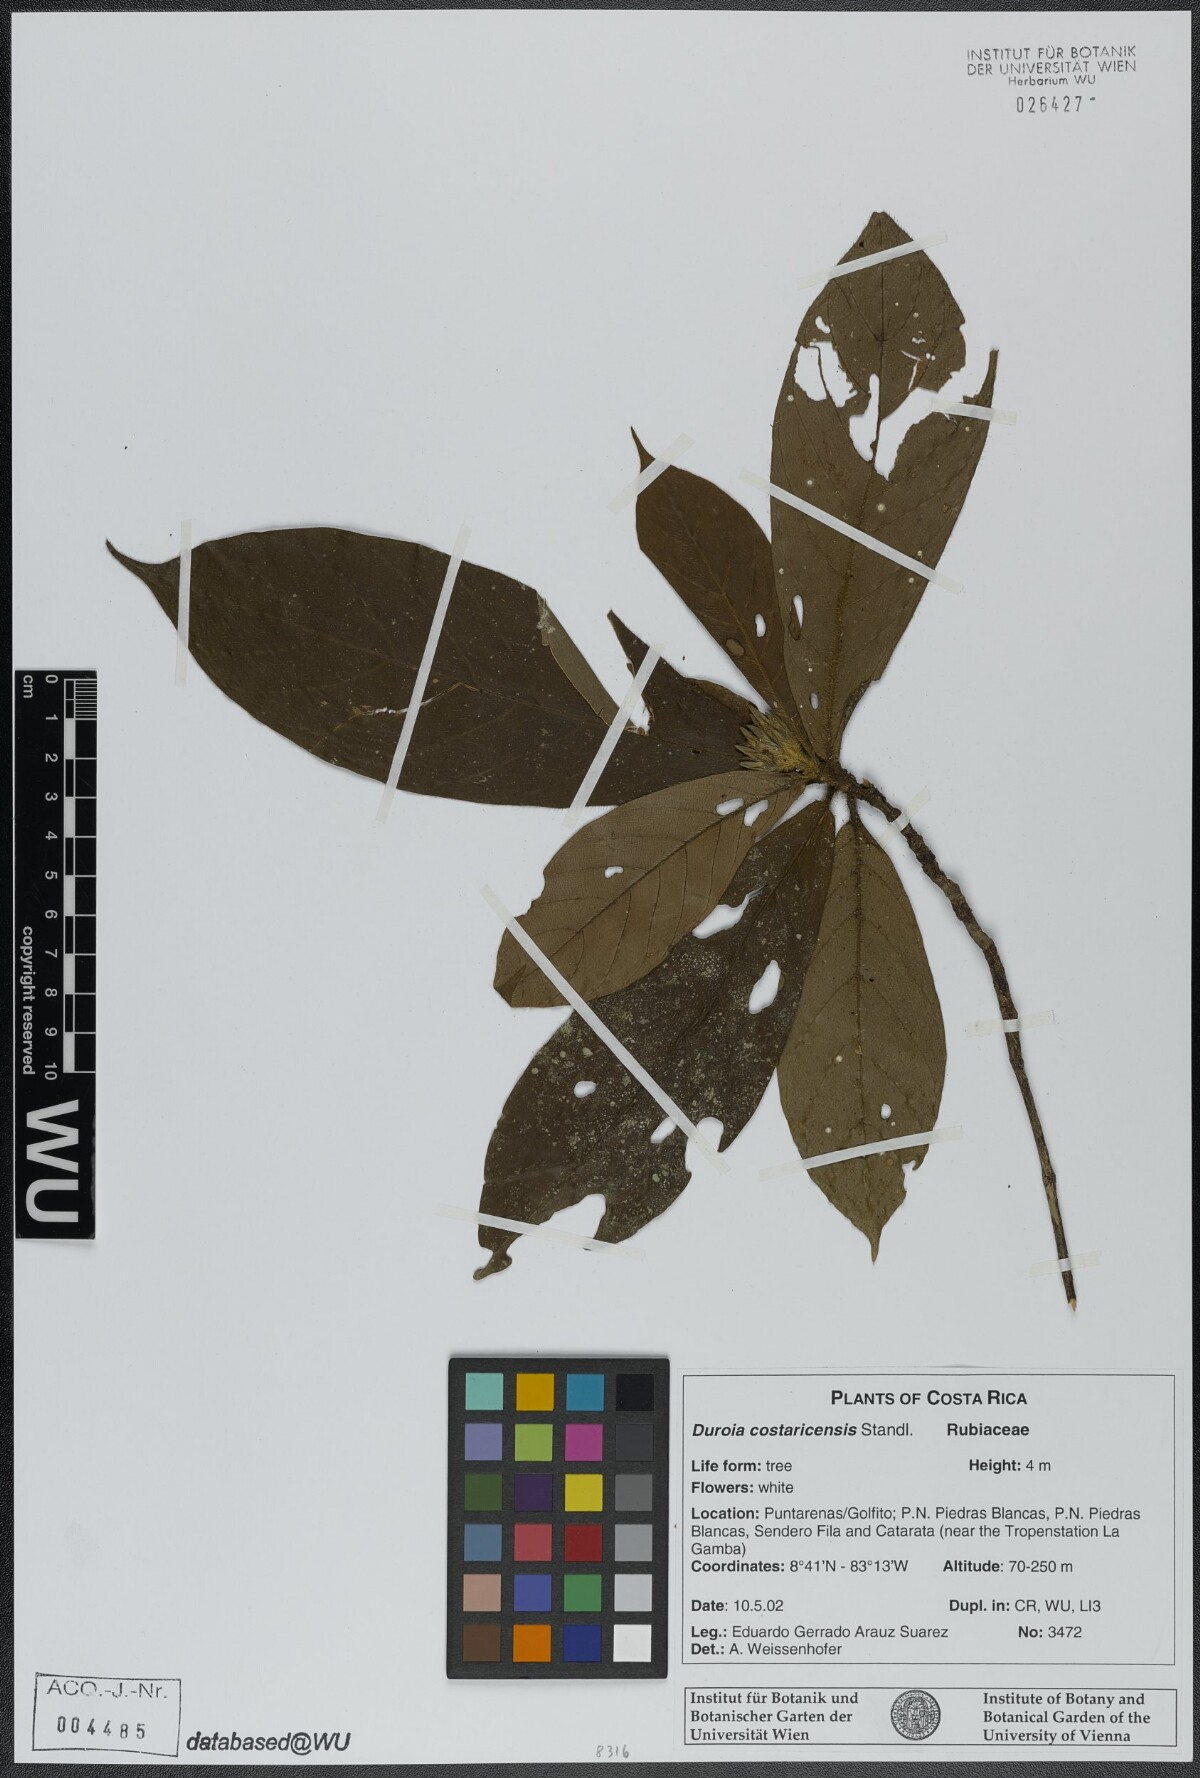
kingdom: Plantae
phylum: Tracheophyta
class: Magnoliopsida
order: Gentianales
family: Rubiaceae
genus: Duroia
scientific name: Duroia costaricensis
